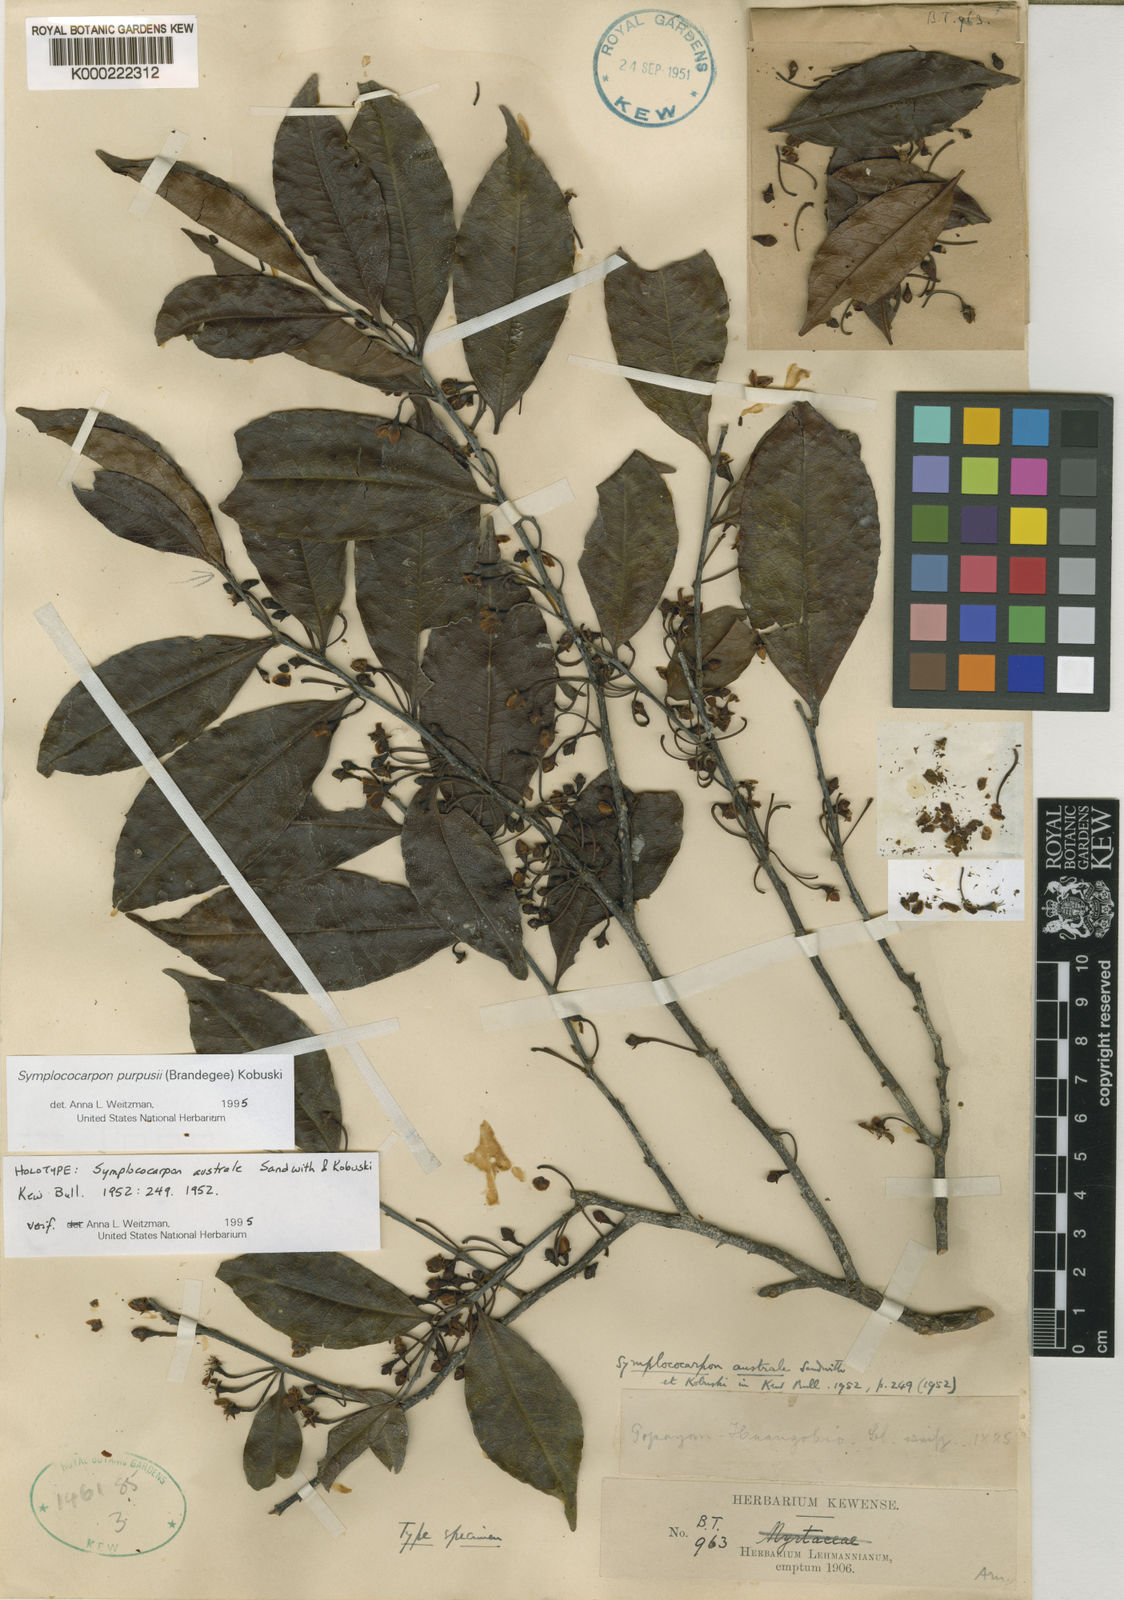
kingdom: Plantae
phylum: Tracheophyta
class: Magnoliopsida
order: Ericales
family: Pentaphylacaceae
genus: Symplococarpon
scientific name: Symplococarpon purpusii
